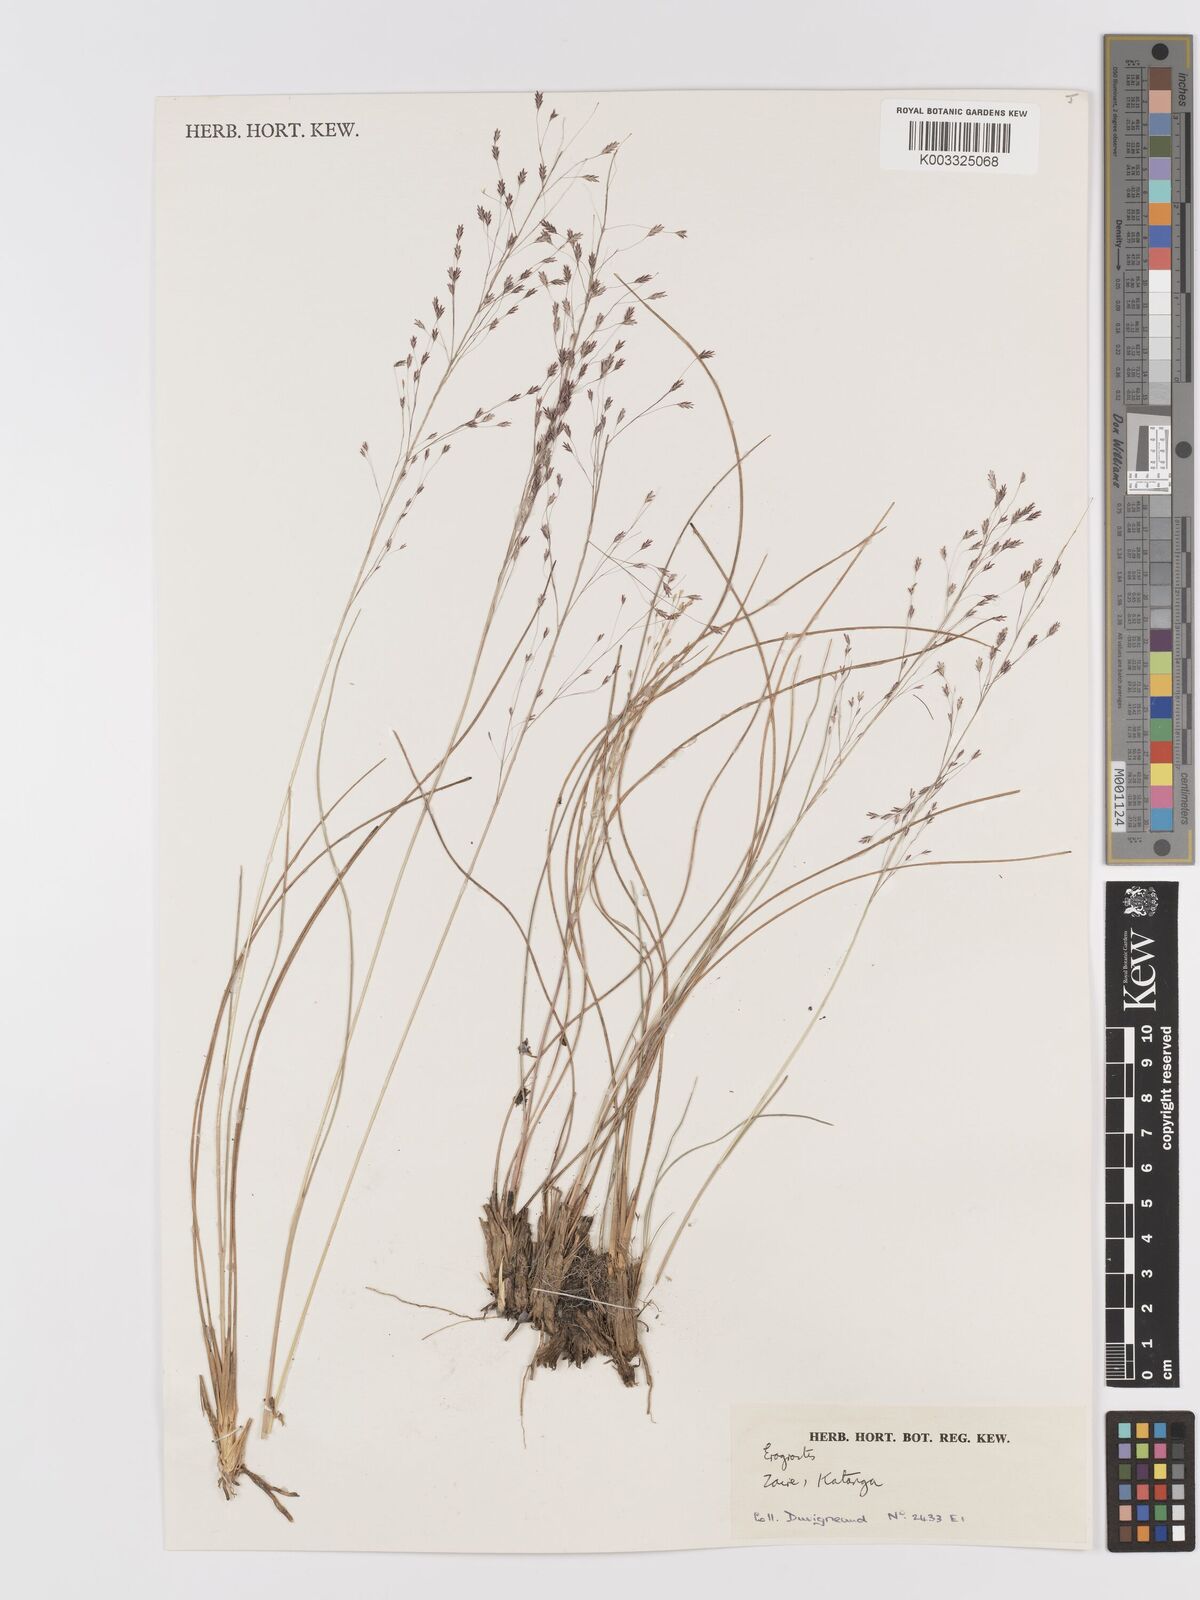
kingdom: Plantae
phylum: Tracheophyta
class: Liliopsida
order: Poales
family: Poaceae
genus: Eragrostis
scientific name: Eragrostis
